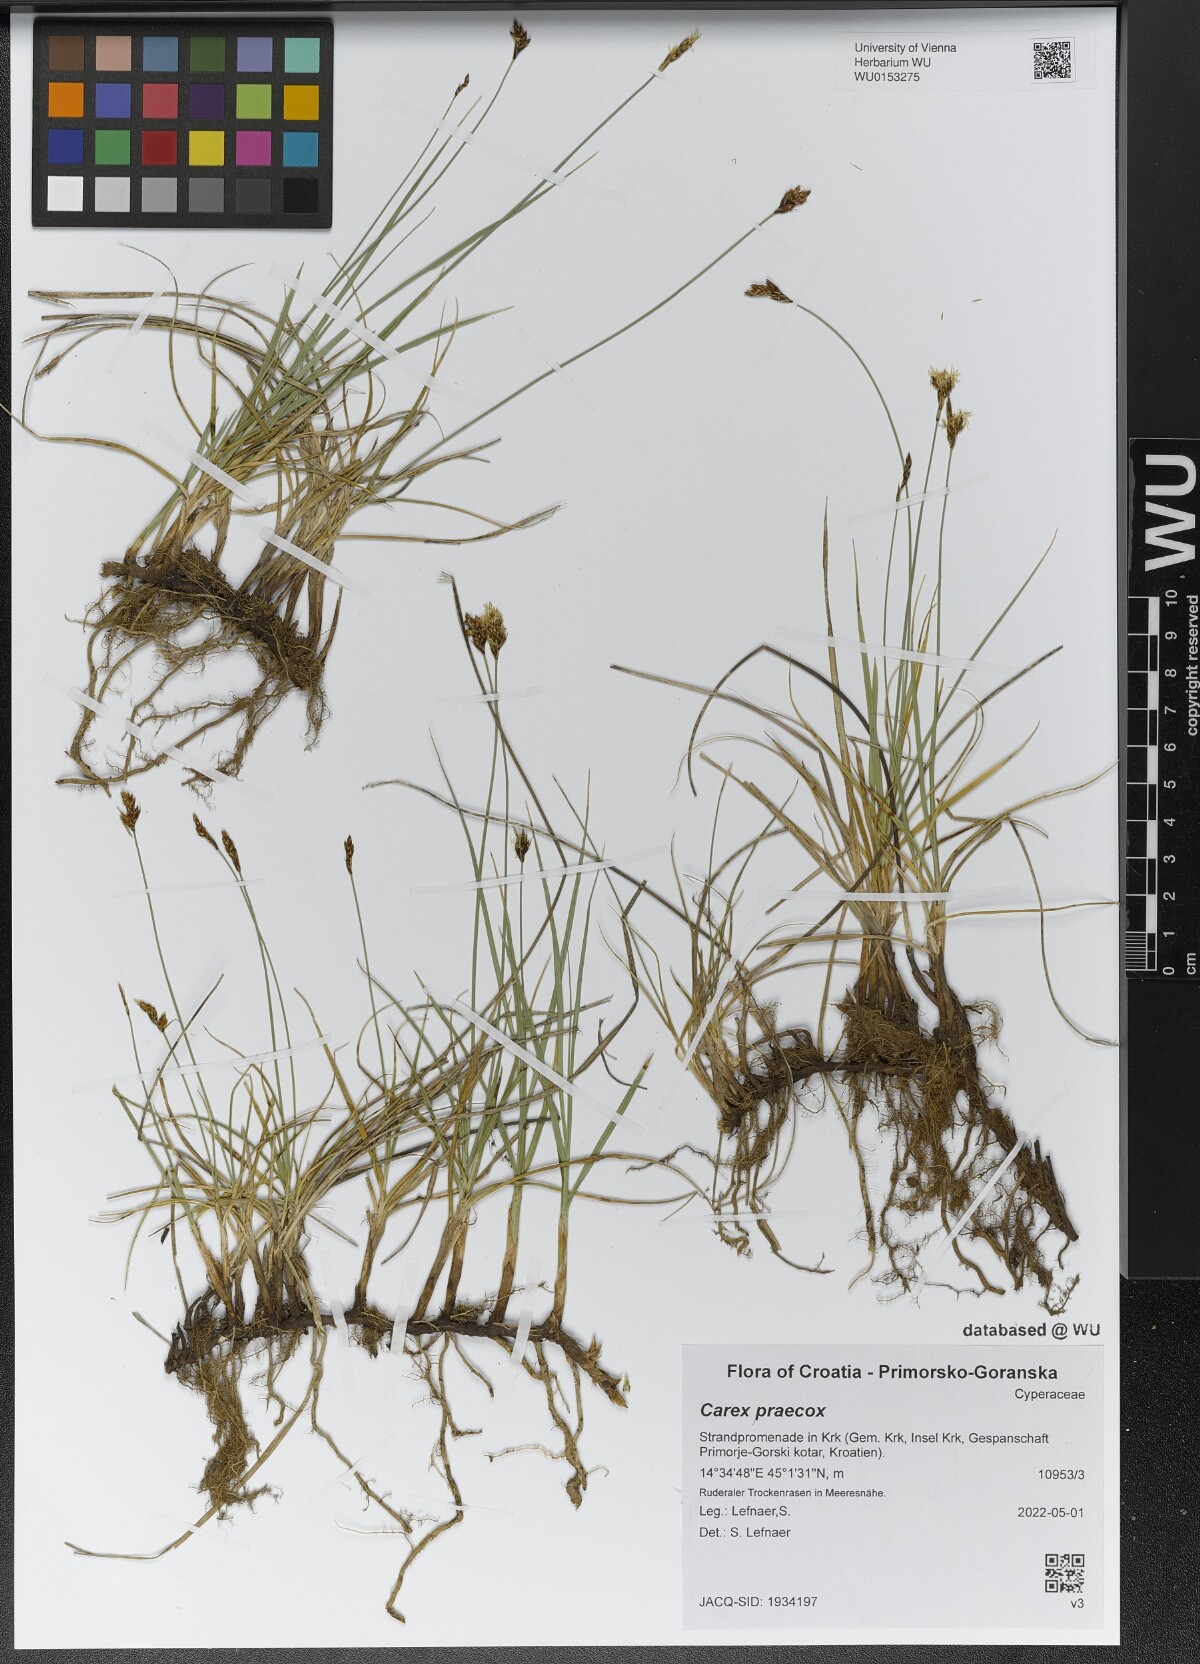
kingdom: Plantae
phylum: Tracheophyta
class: Liliopsida
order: Poales
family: Cyperaceae
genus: Carex
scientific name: Carex praecox
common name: Early sedge
